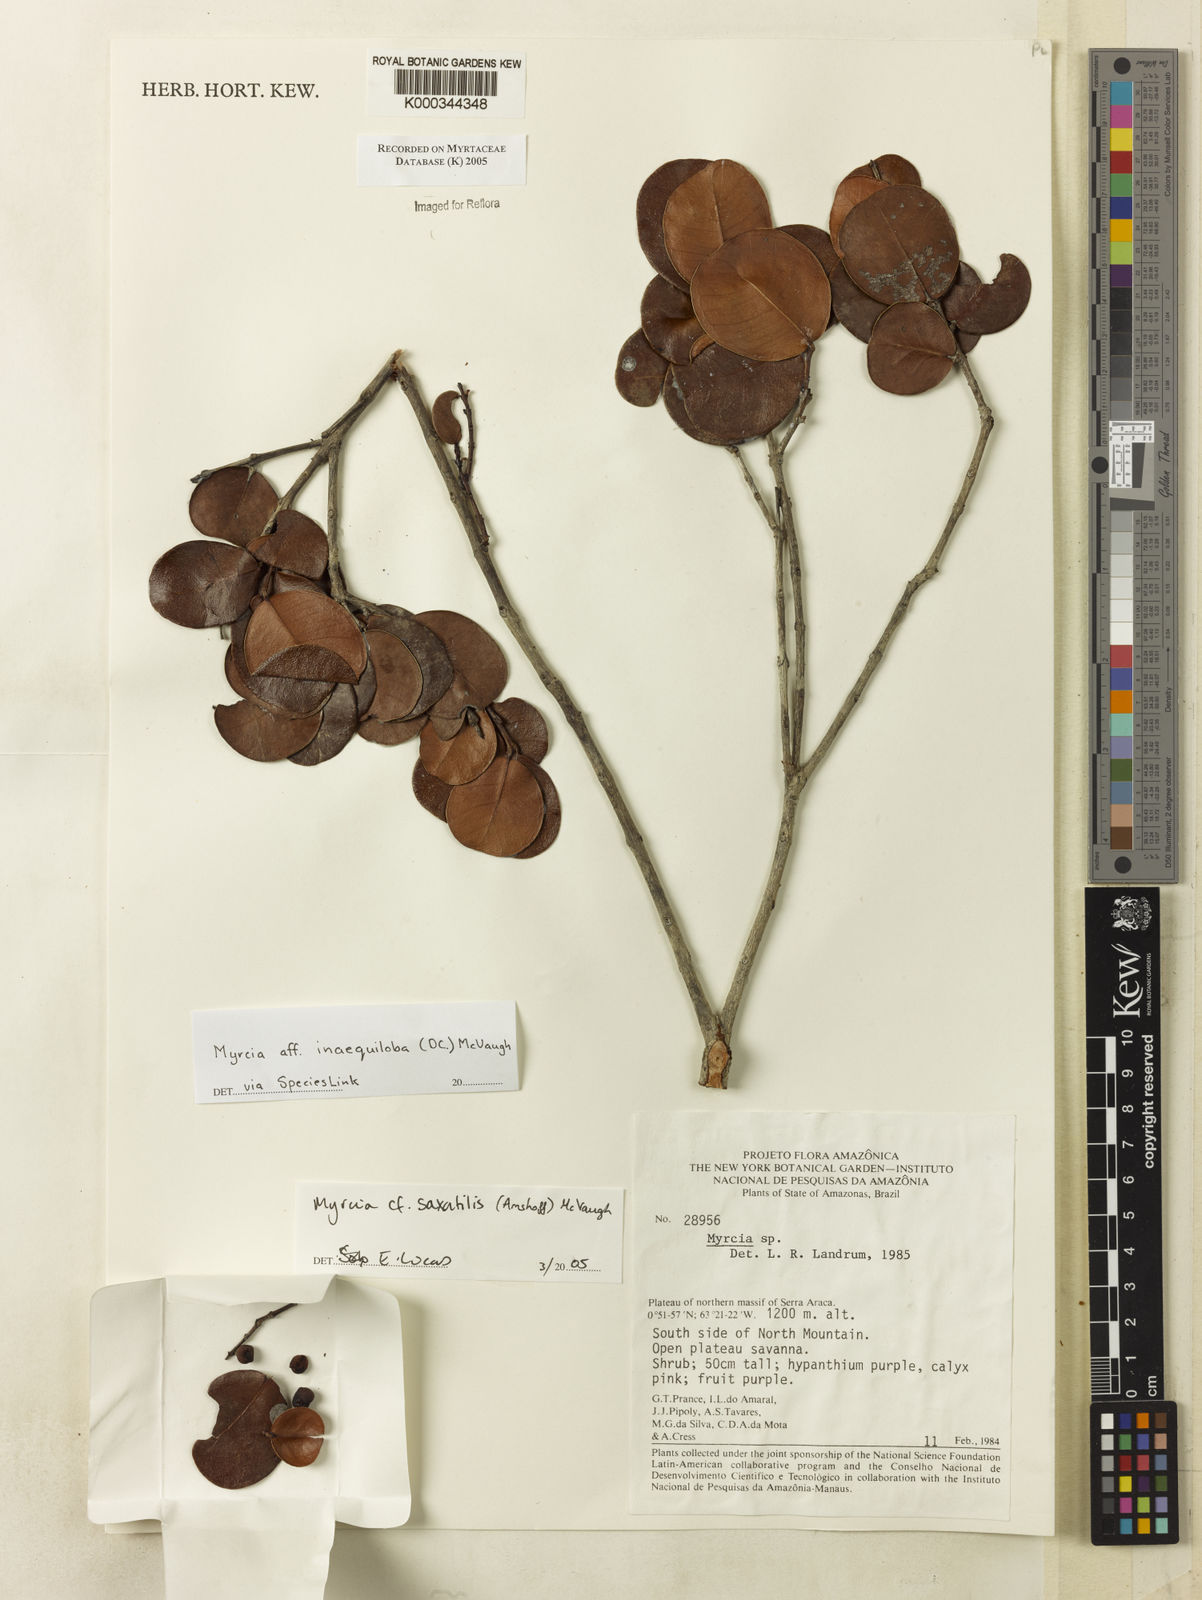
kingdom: Plantae
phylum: Tracheophyta
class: Magnoliopsida
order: Myrtales
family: Myrtaceae
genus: Myrcia
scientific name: Myrcia saxatilis
